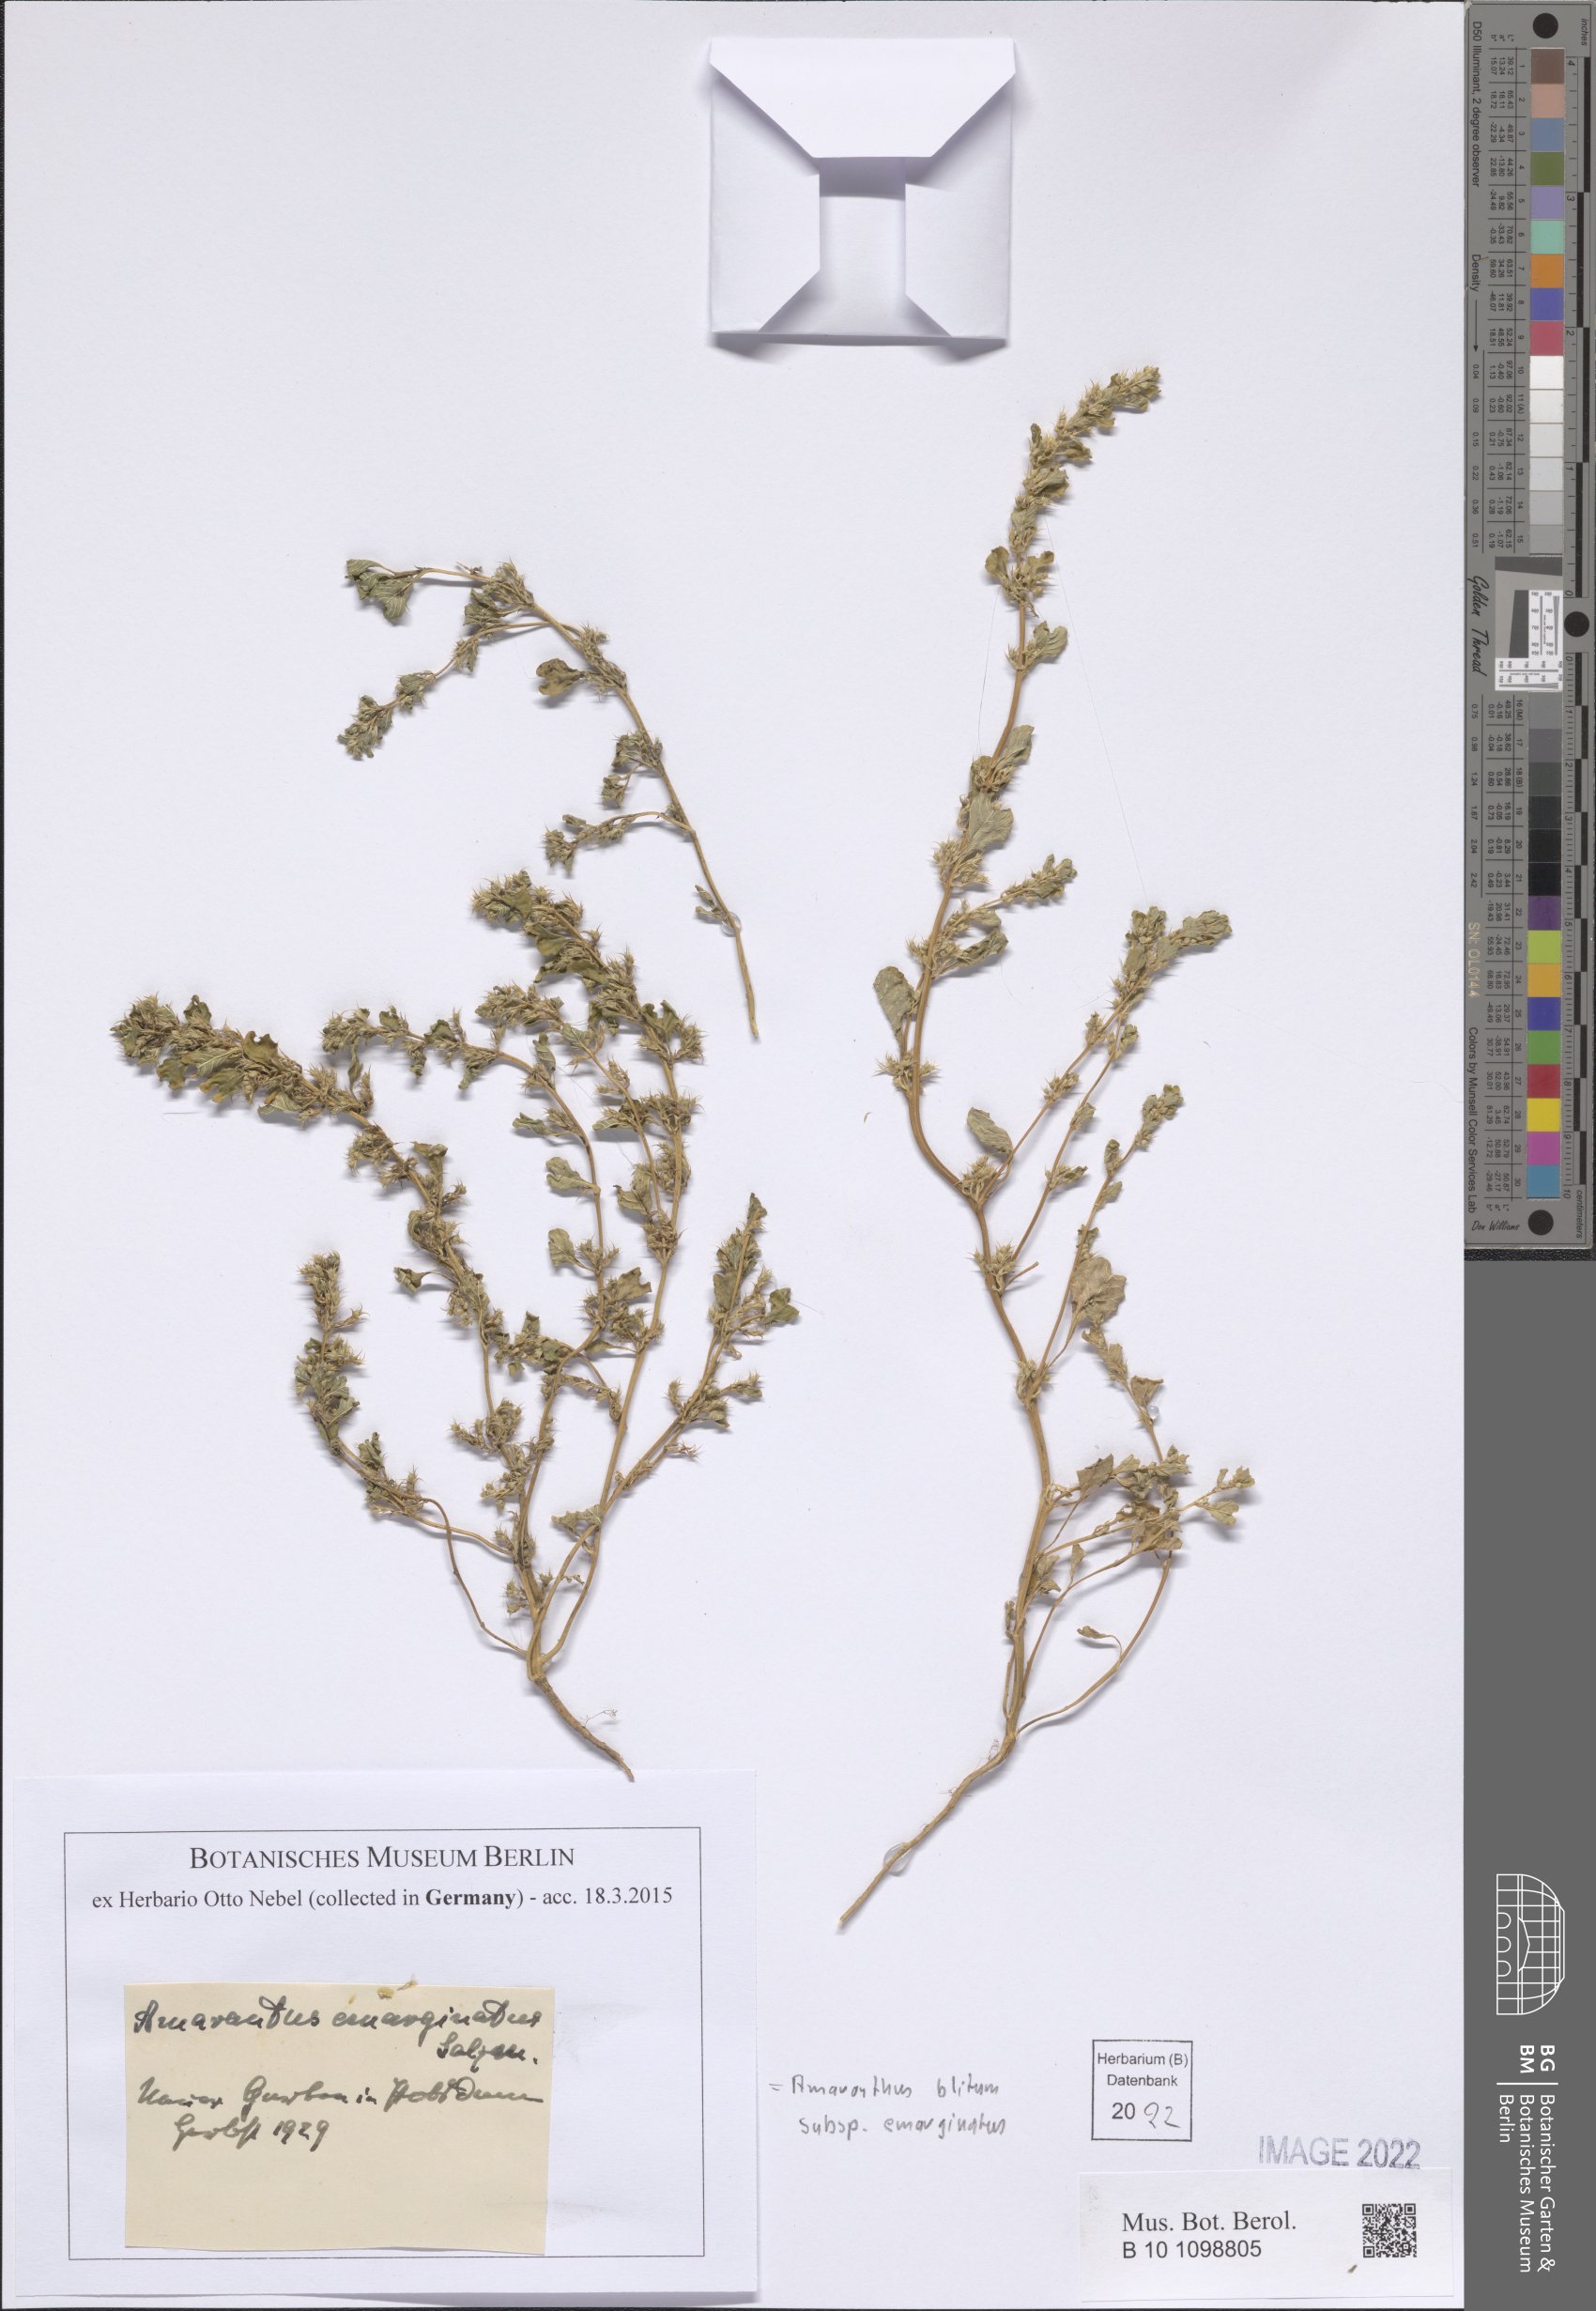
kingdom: Plantae
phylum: Tracheophyta
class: Magnoliopsida
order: Caryophyllales
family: Amaranthaceae
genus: Amaranthus
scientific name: Amaranthus emarginatus
